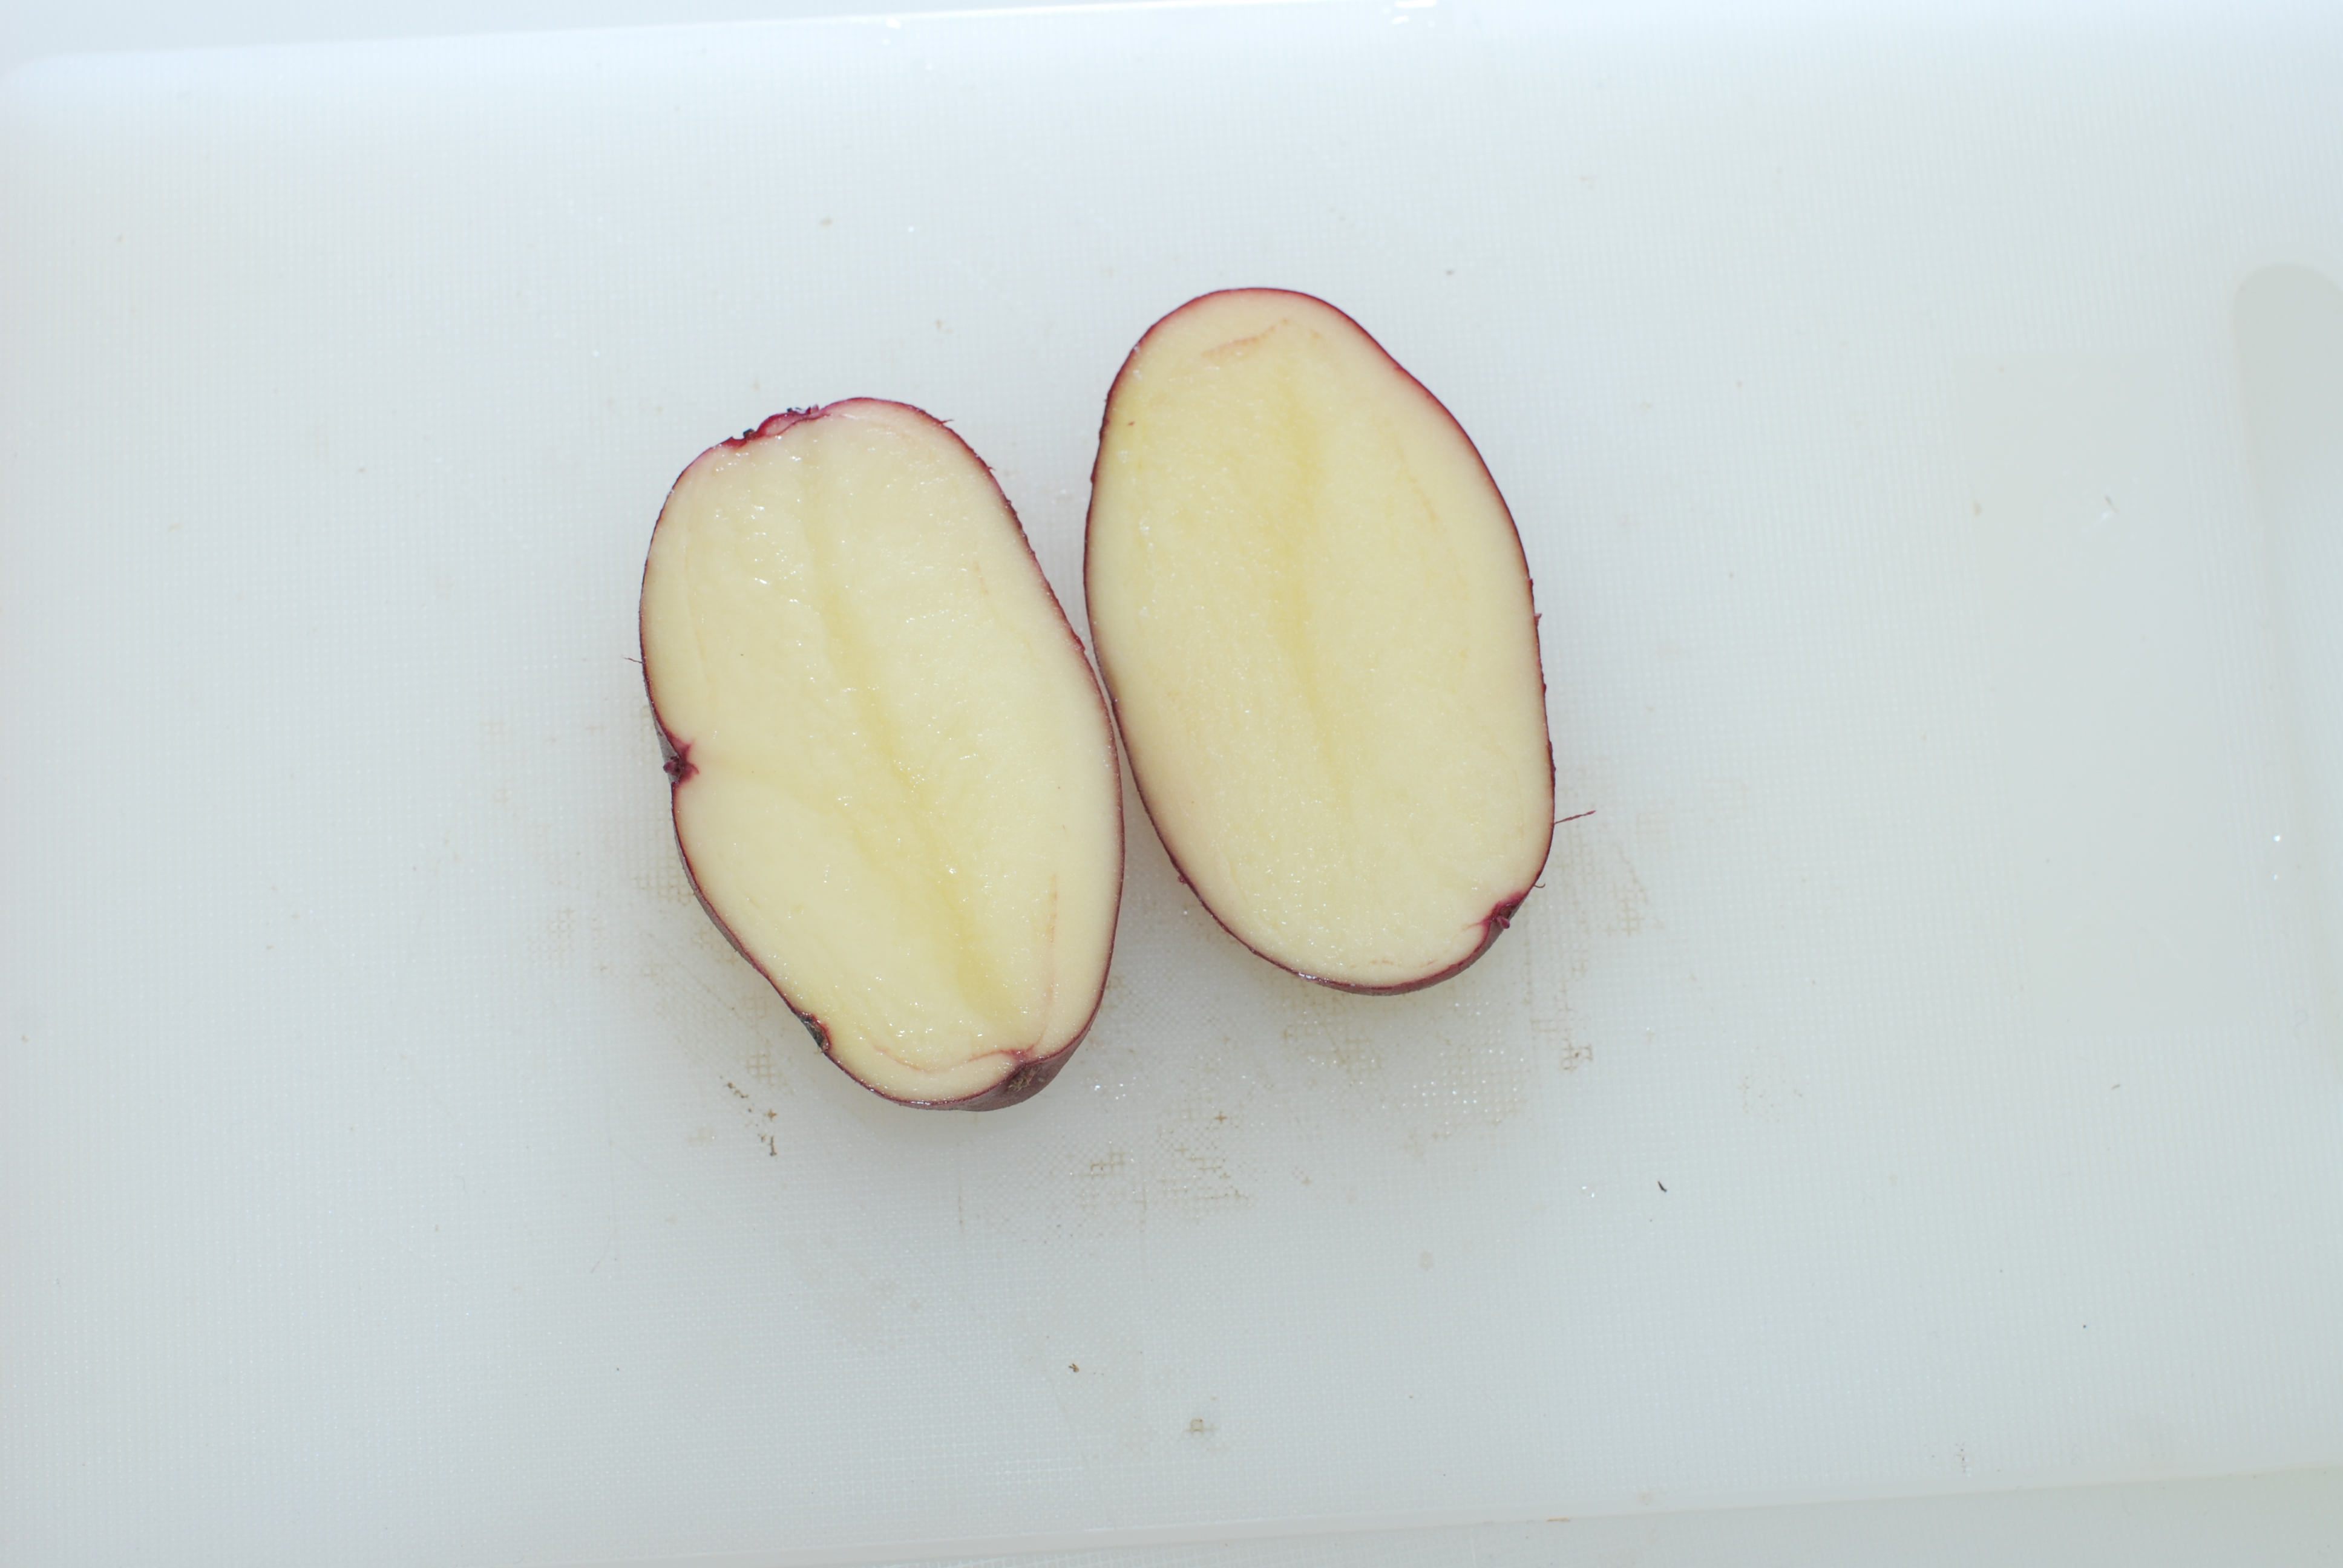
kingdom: Plantae
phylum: Tracheophyta
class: Magnoliopsida
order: Solanales
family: Solanaceae
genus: Solanum
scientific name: Solanum tuberosum
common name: Potato
